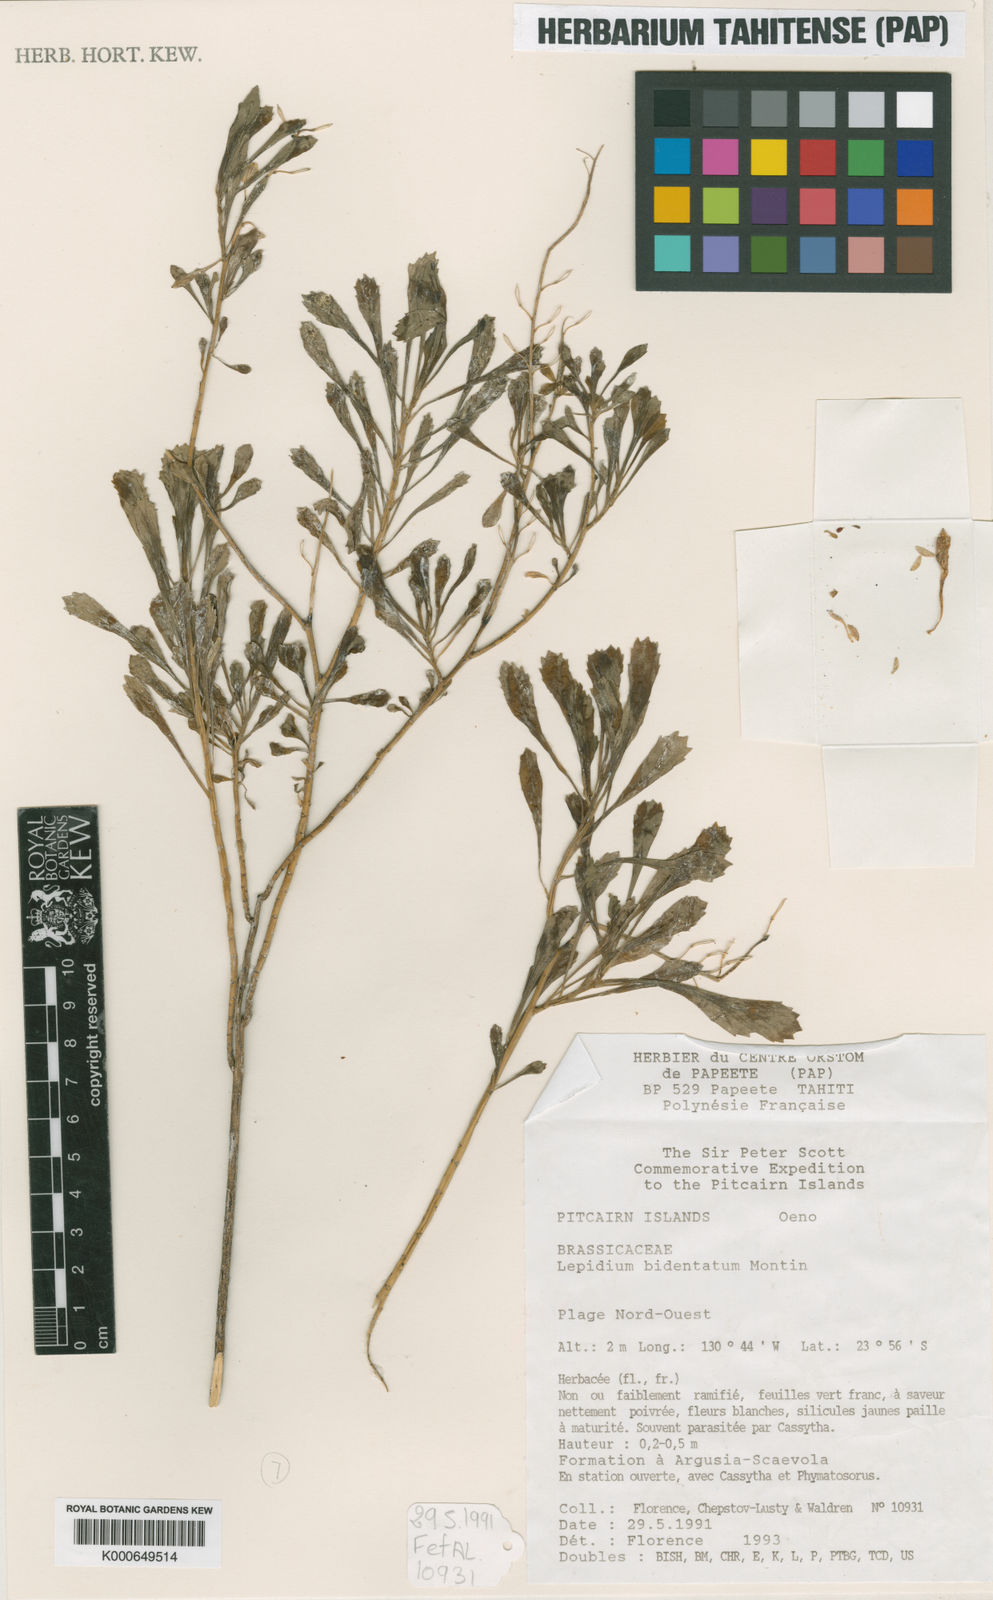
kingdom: Plantae
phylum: Tracheophyta
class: Magnoliopsida
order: Brassicales
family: Brassicaceae
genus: Lepidium
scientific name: Lepidium bidentatum
